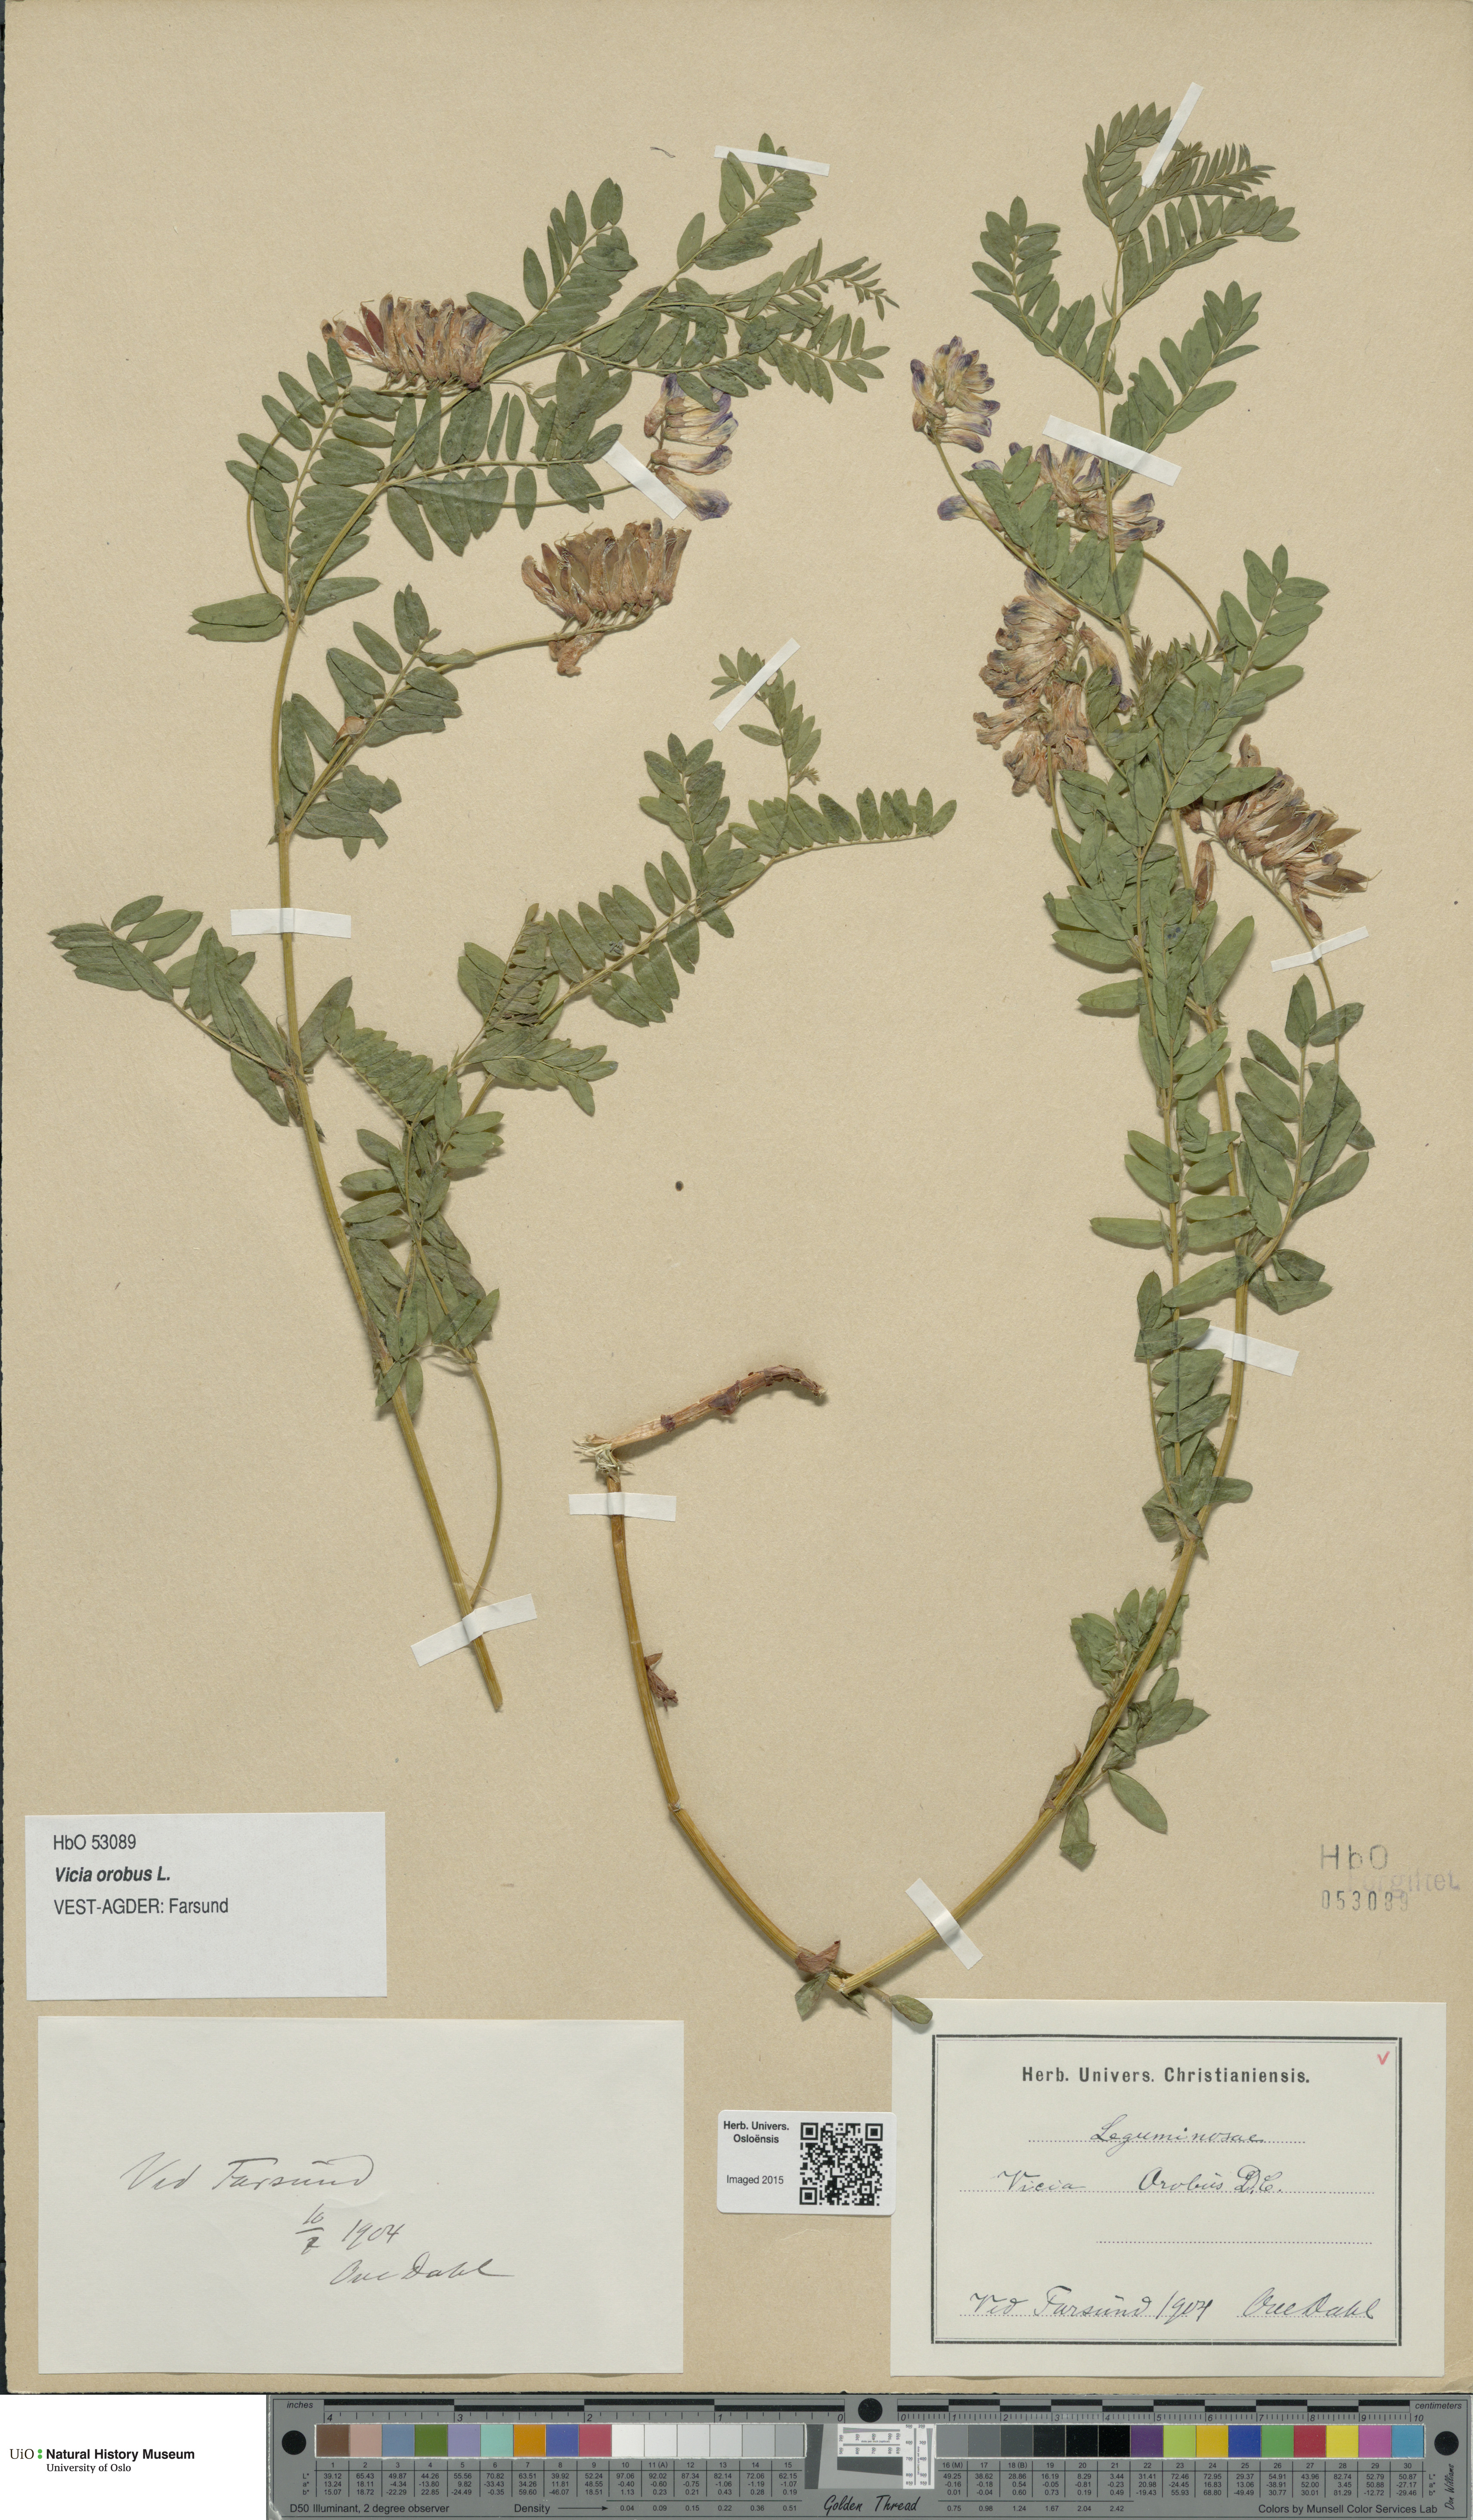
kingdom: Plantae
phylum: Tracheophyta
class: Magnoliopsida
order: Fabales
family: Fabaceae
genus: Vicia
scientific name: Vicia orobus
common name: Wood bitter-vetch
